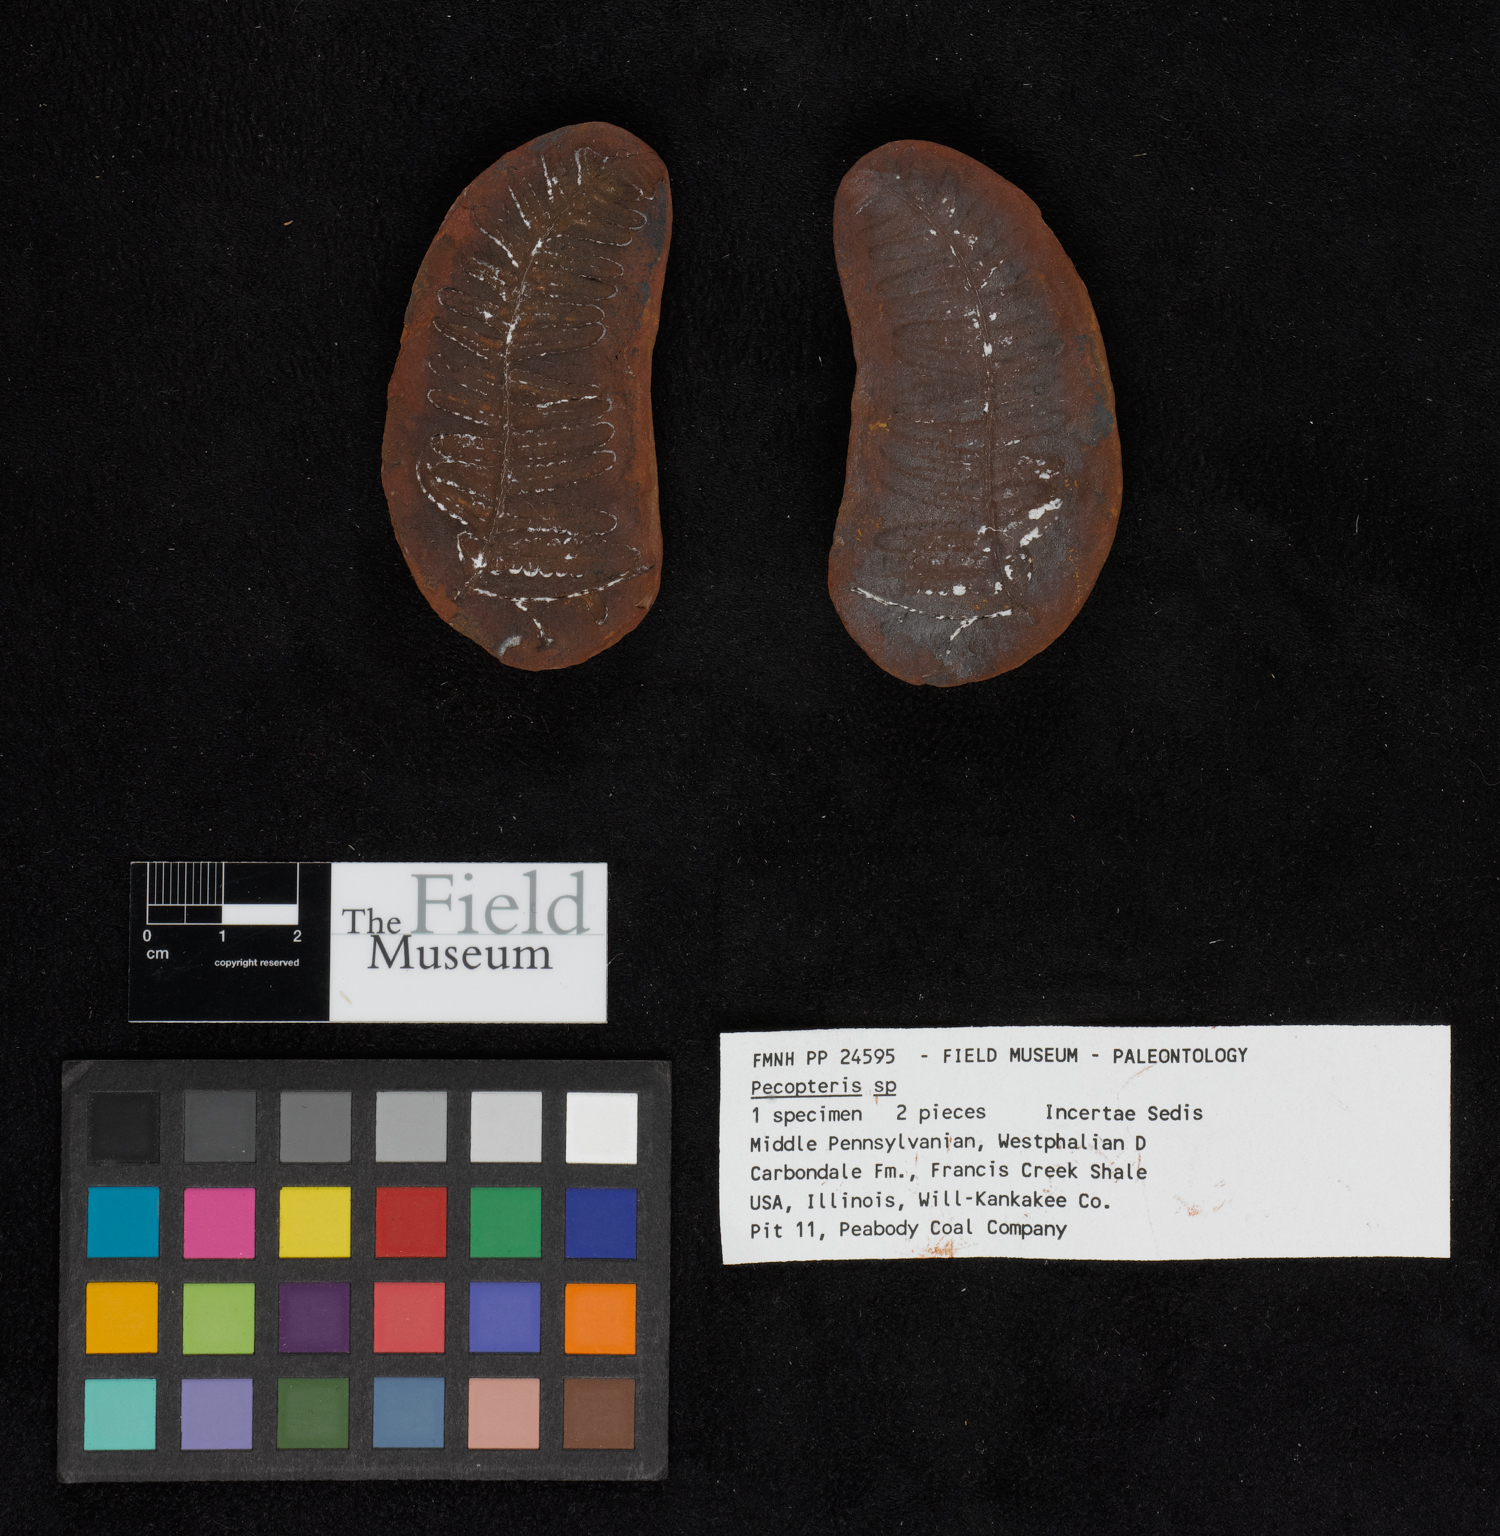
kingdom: Plantae
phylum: Tracheophyta
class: Polypodiopsida
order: Marattiales
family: Asterothecaceae
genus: Pecopteris
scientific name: Pecopteris
